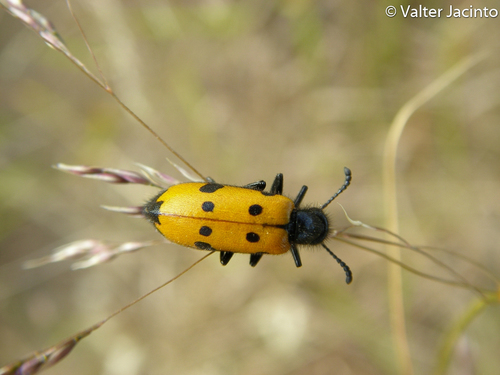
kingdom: Animalia
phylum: Arthropoda
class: Insecta
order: Coleoptera
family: Meloidae
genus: Mylabris
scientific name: Mylabris quadripunctata
